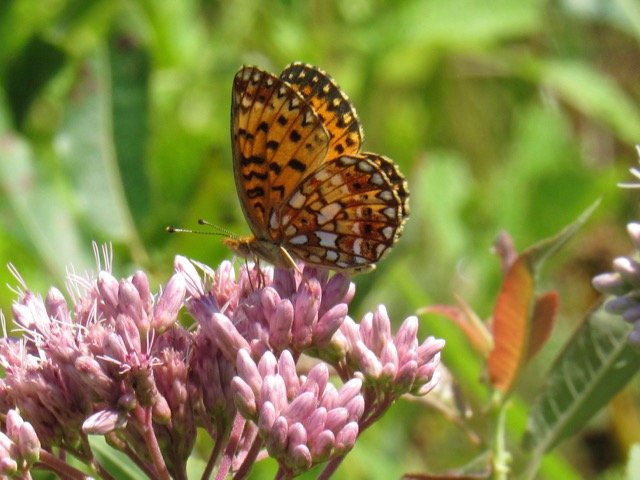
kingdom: Animalia
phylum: Arthropoda
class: Insecta
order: Lepidoptera
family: Nymphalidae
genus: Boloria
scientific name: Boloria selene
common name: Silver-bordered Fritillary
